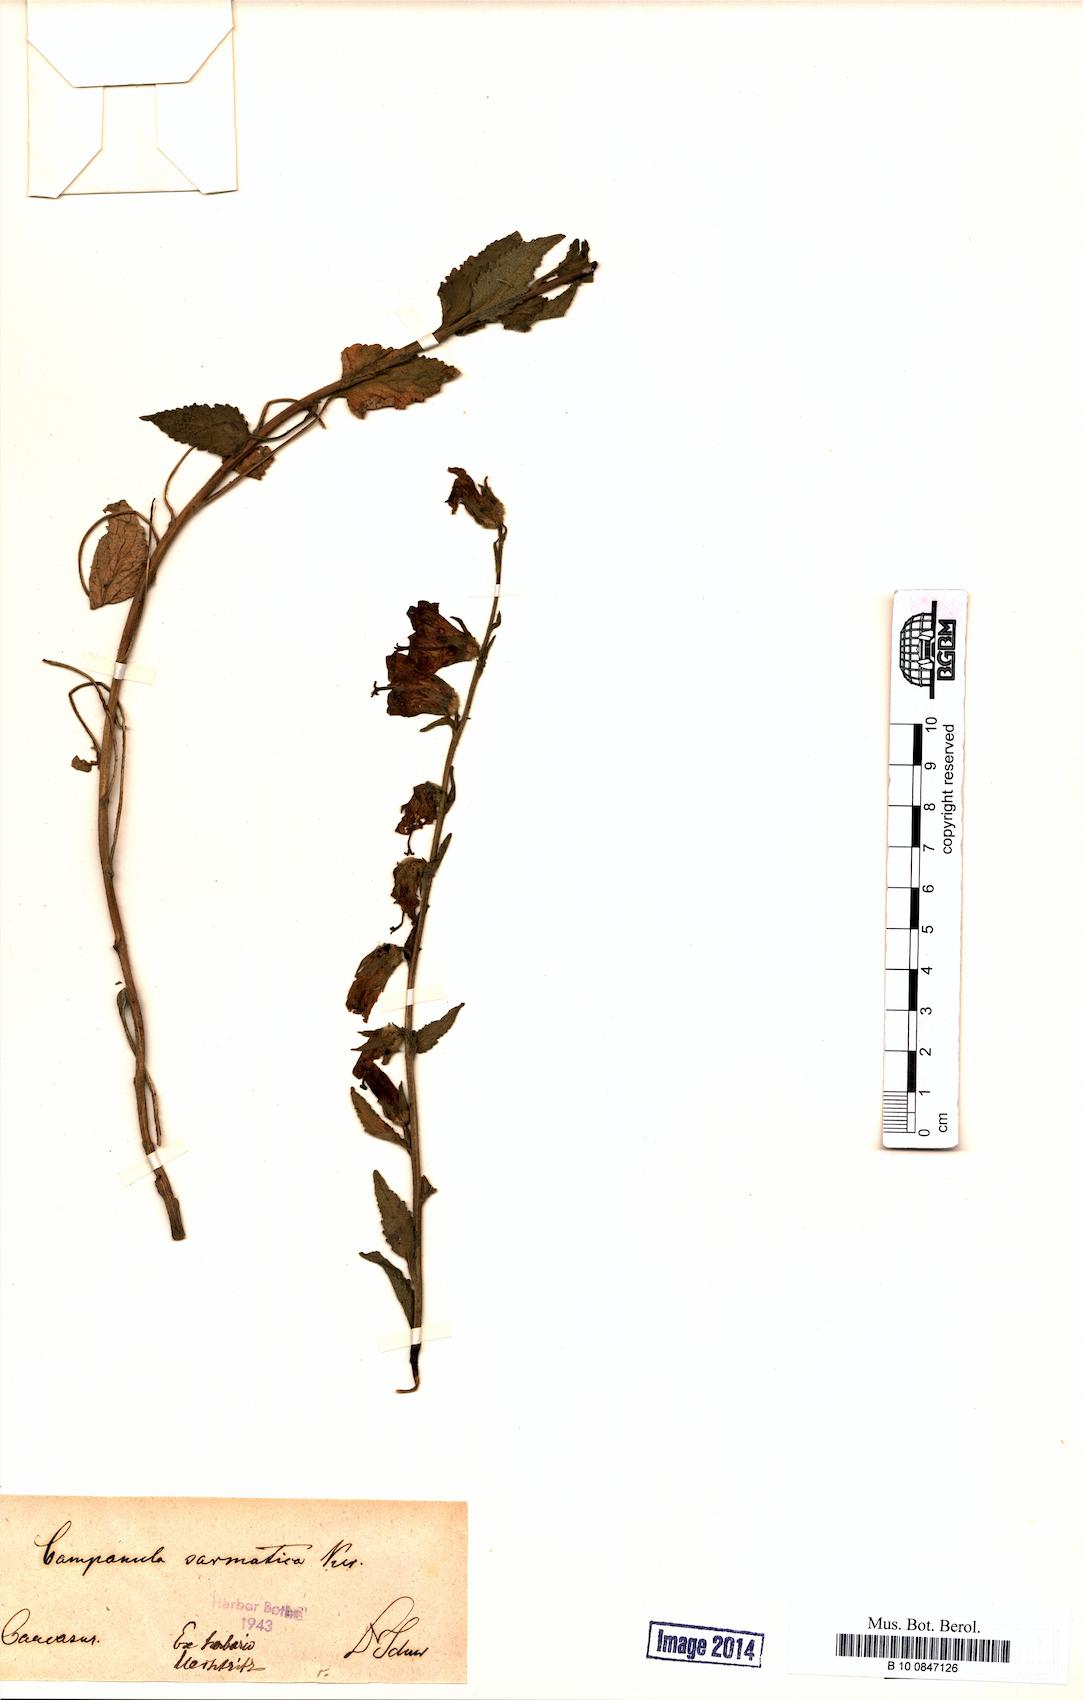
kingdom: Plantae
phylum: Tracheophyta
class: Magnoliopsida
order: Asterales
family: Campanulaceae
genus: Campanula
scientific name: Campanula sarmatica
